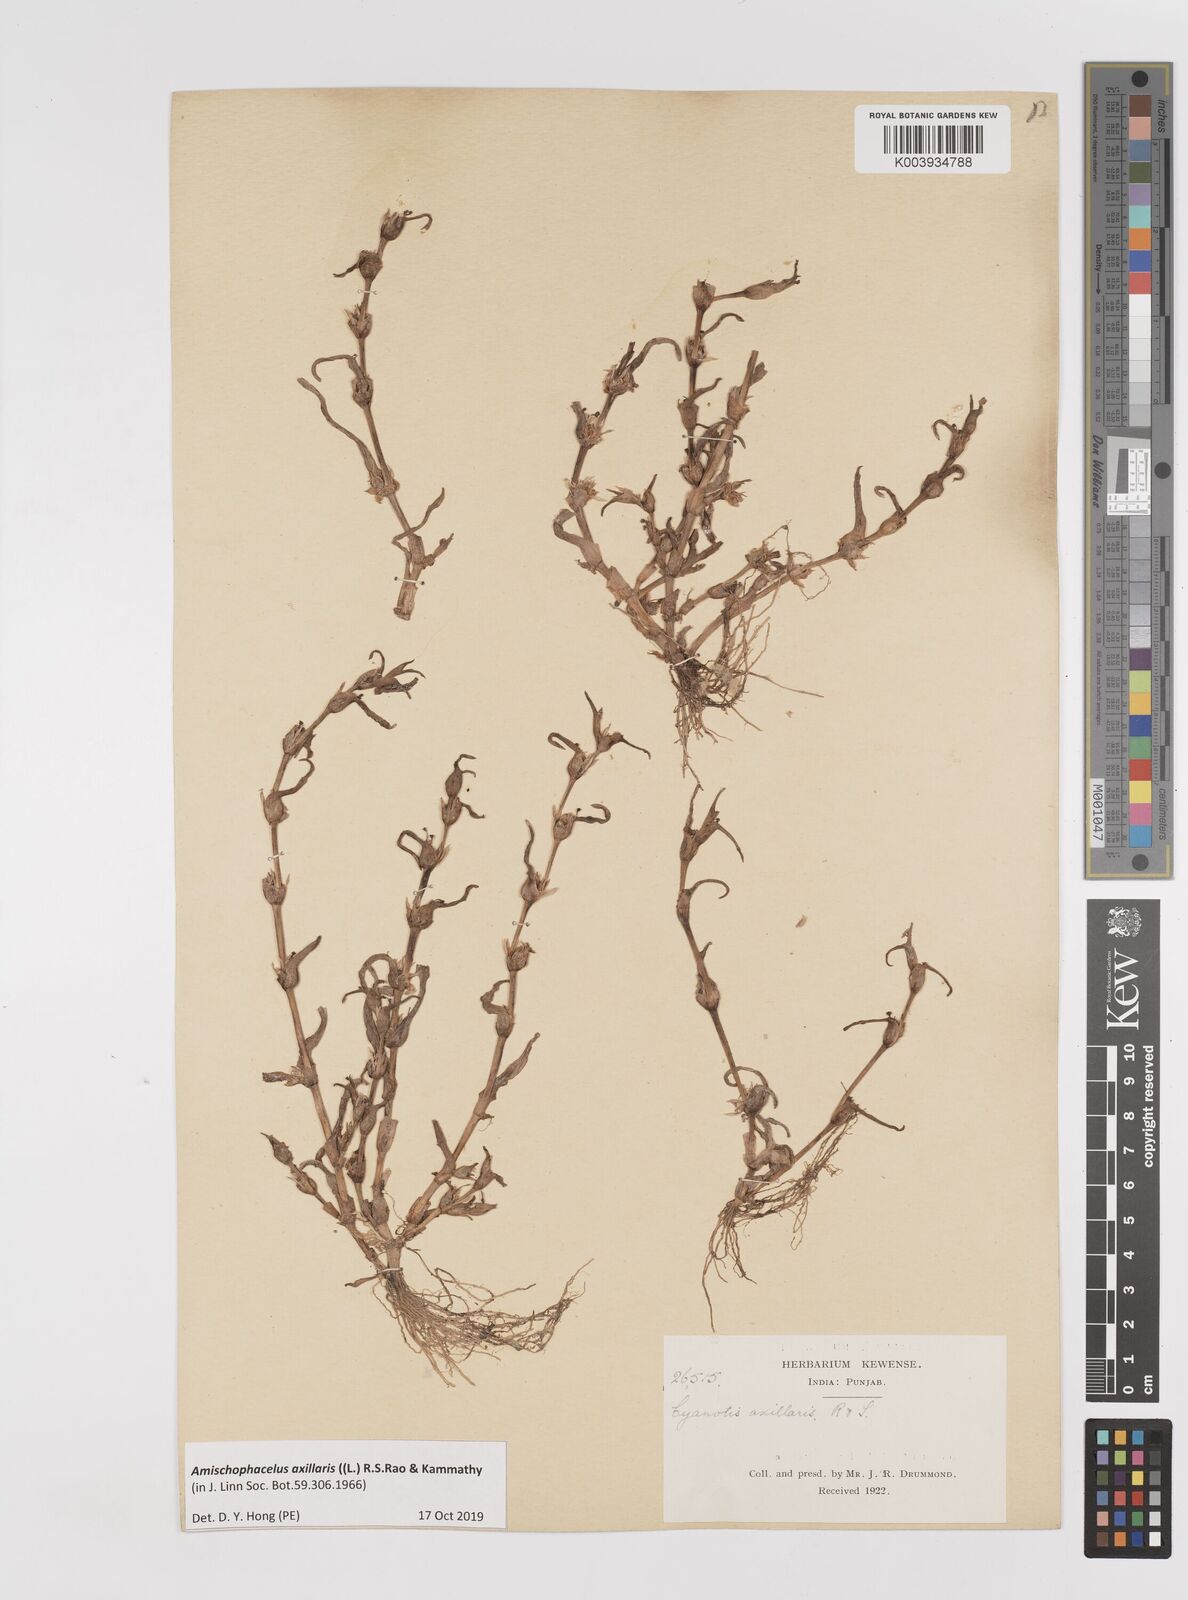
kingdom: Plantae
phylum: Tracheophyta
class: Liliopsida
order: Commelinales
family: Commelinaceae
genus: Cyanotis
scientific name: Cyanotis axillaris
